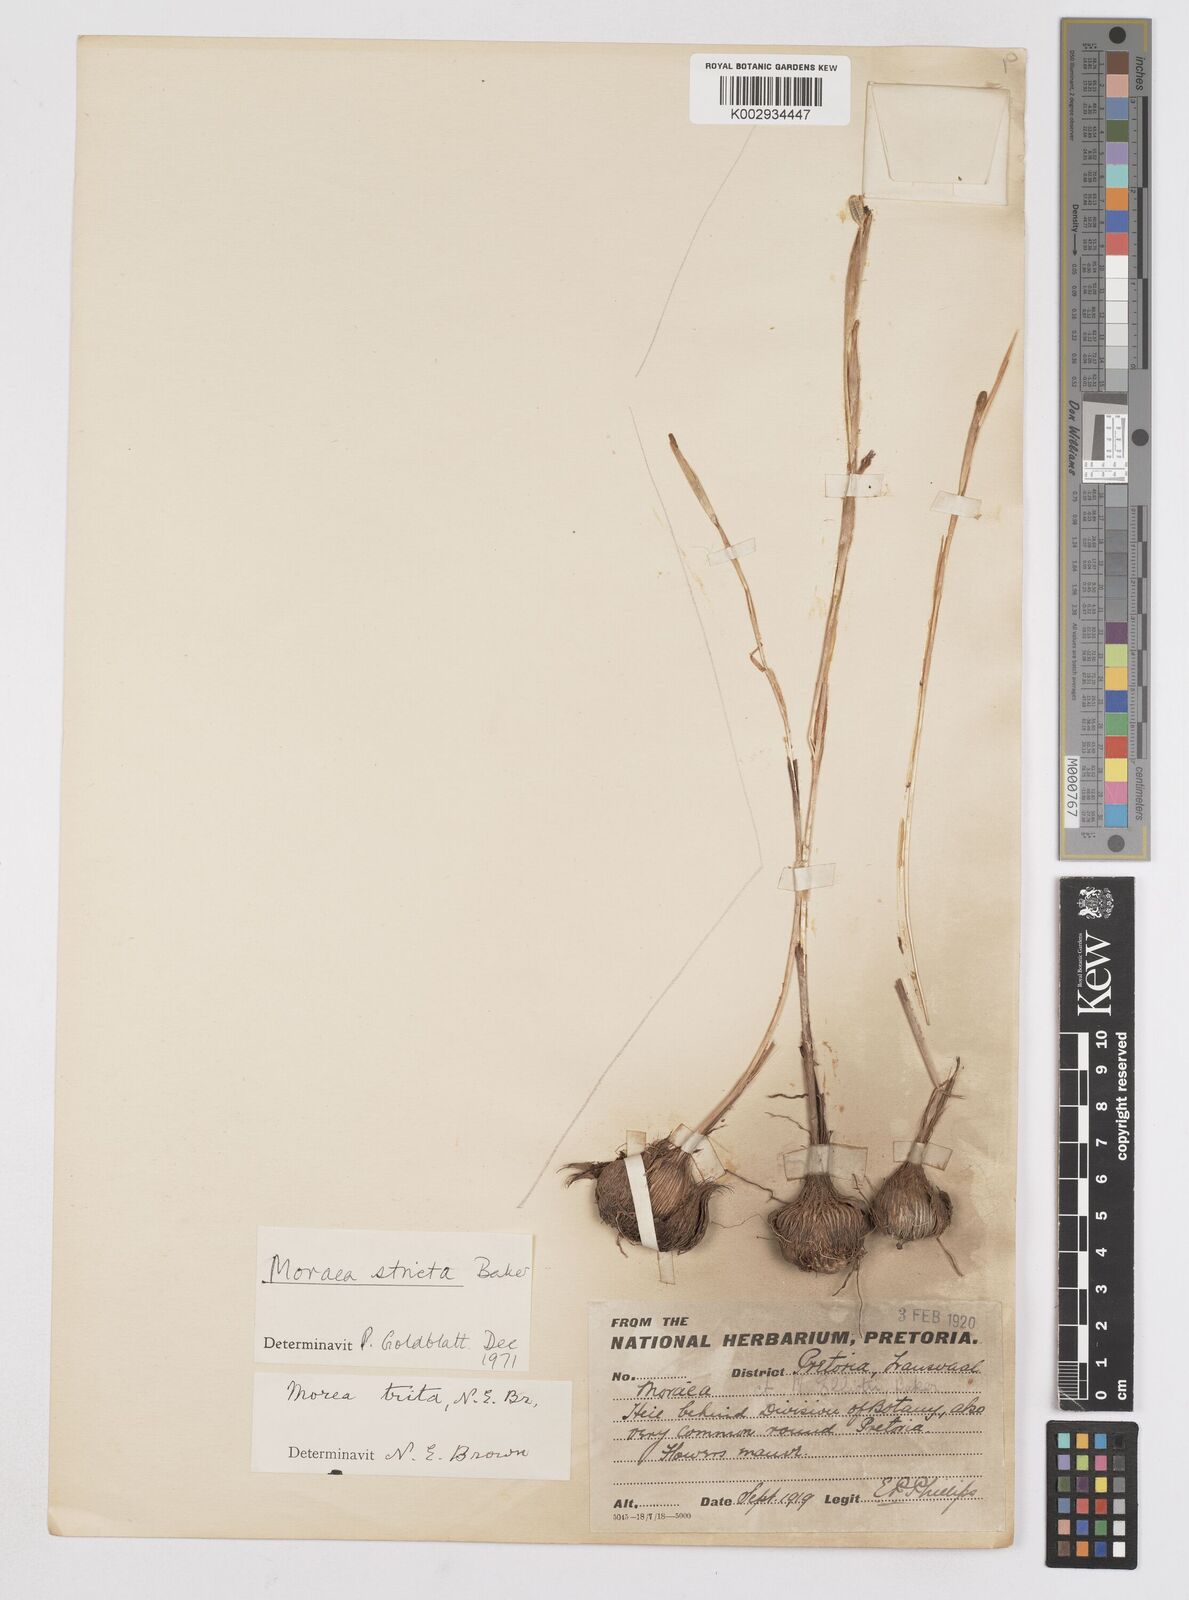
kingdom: Plantae
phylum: Tracheophyta
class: Liliopsida
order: Asparagales
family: Iridaceae
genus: Moraea
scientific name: Moraea stricta
